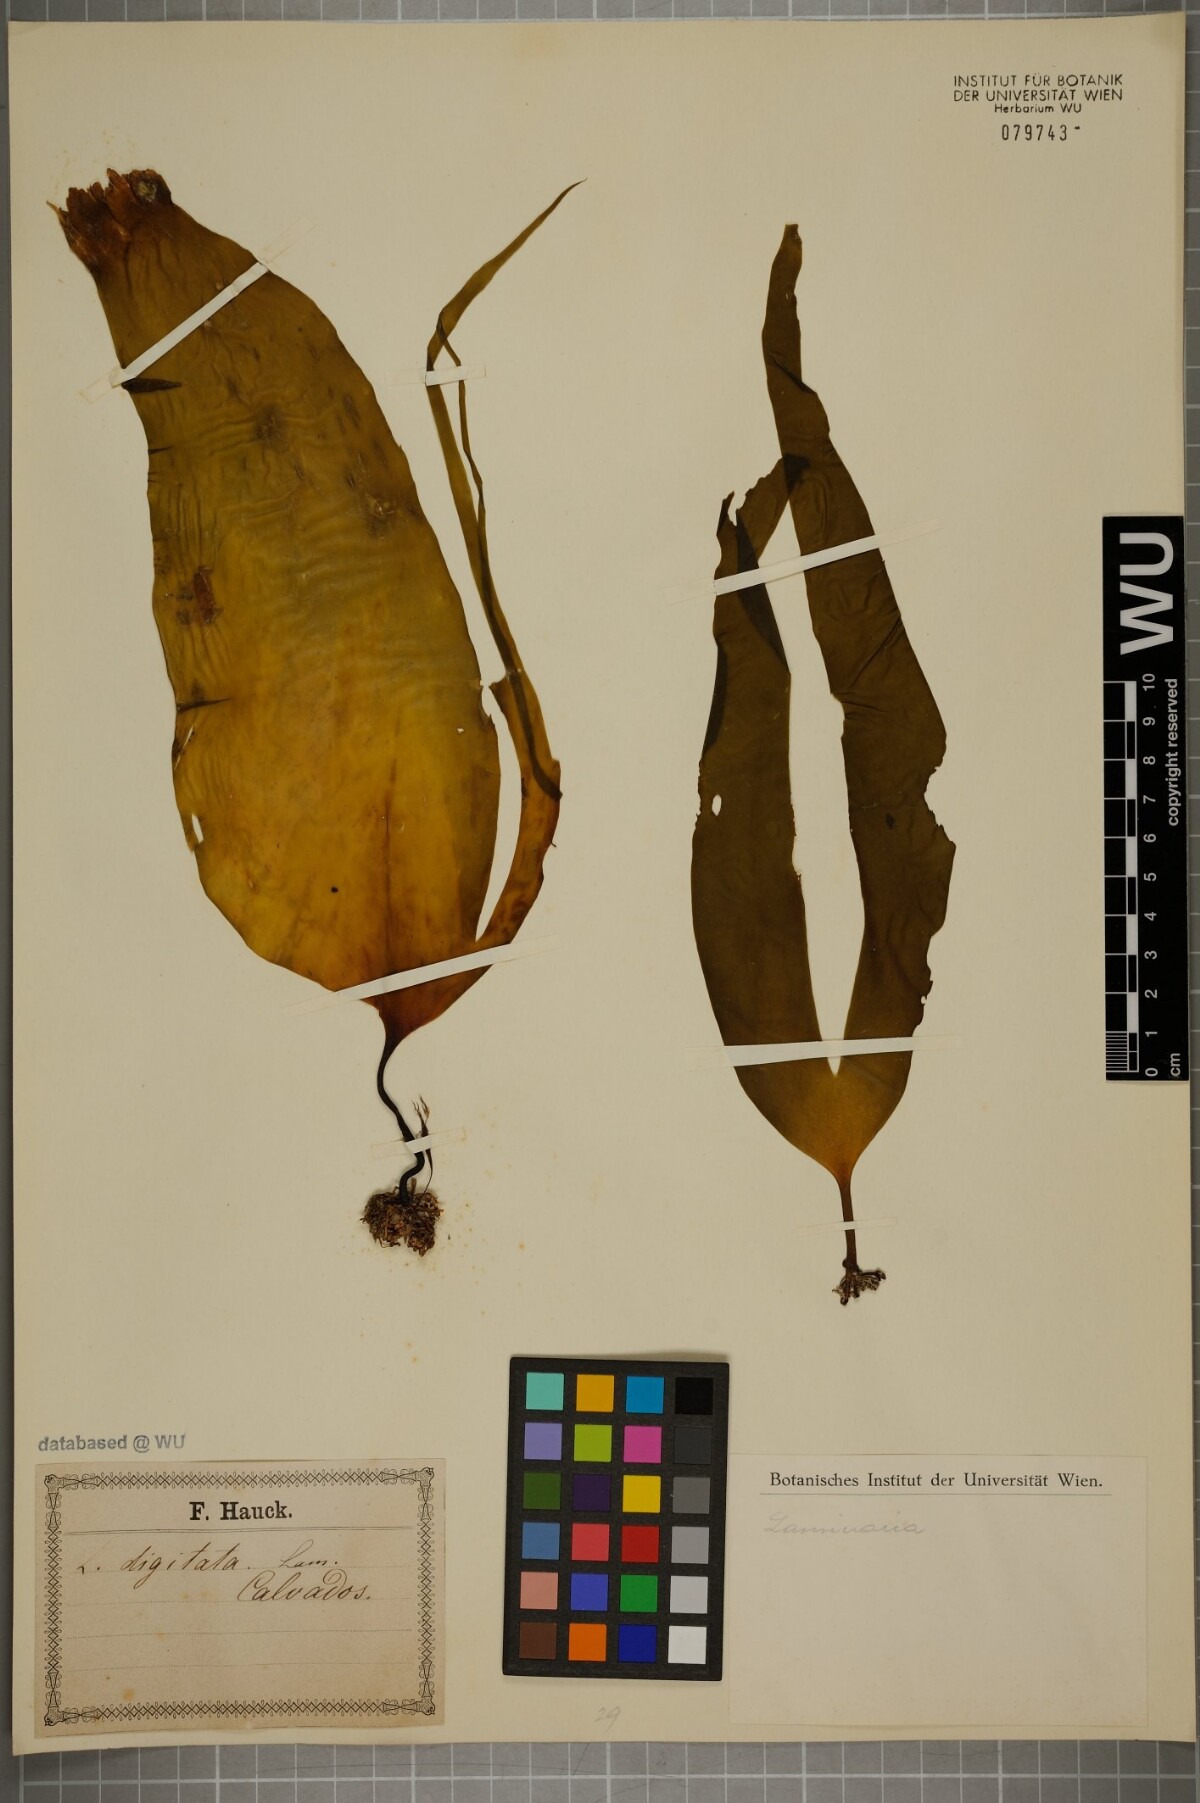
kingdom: Chromista
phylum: Ochrophyta
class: Phaeophyceae
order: Laminariales
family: Laminariaceae
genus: Laminaria
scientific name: Laminaria digitata
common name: Oarweed
